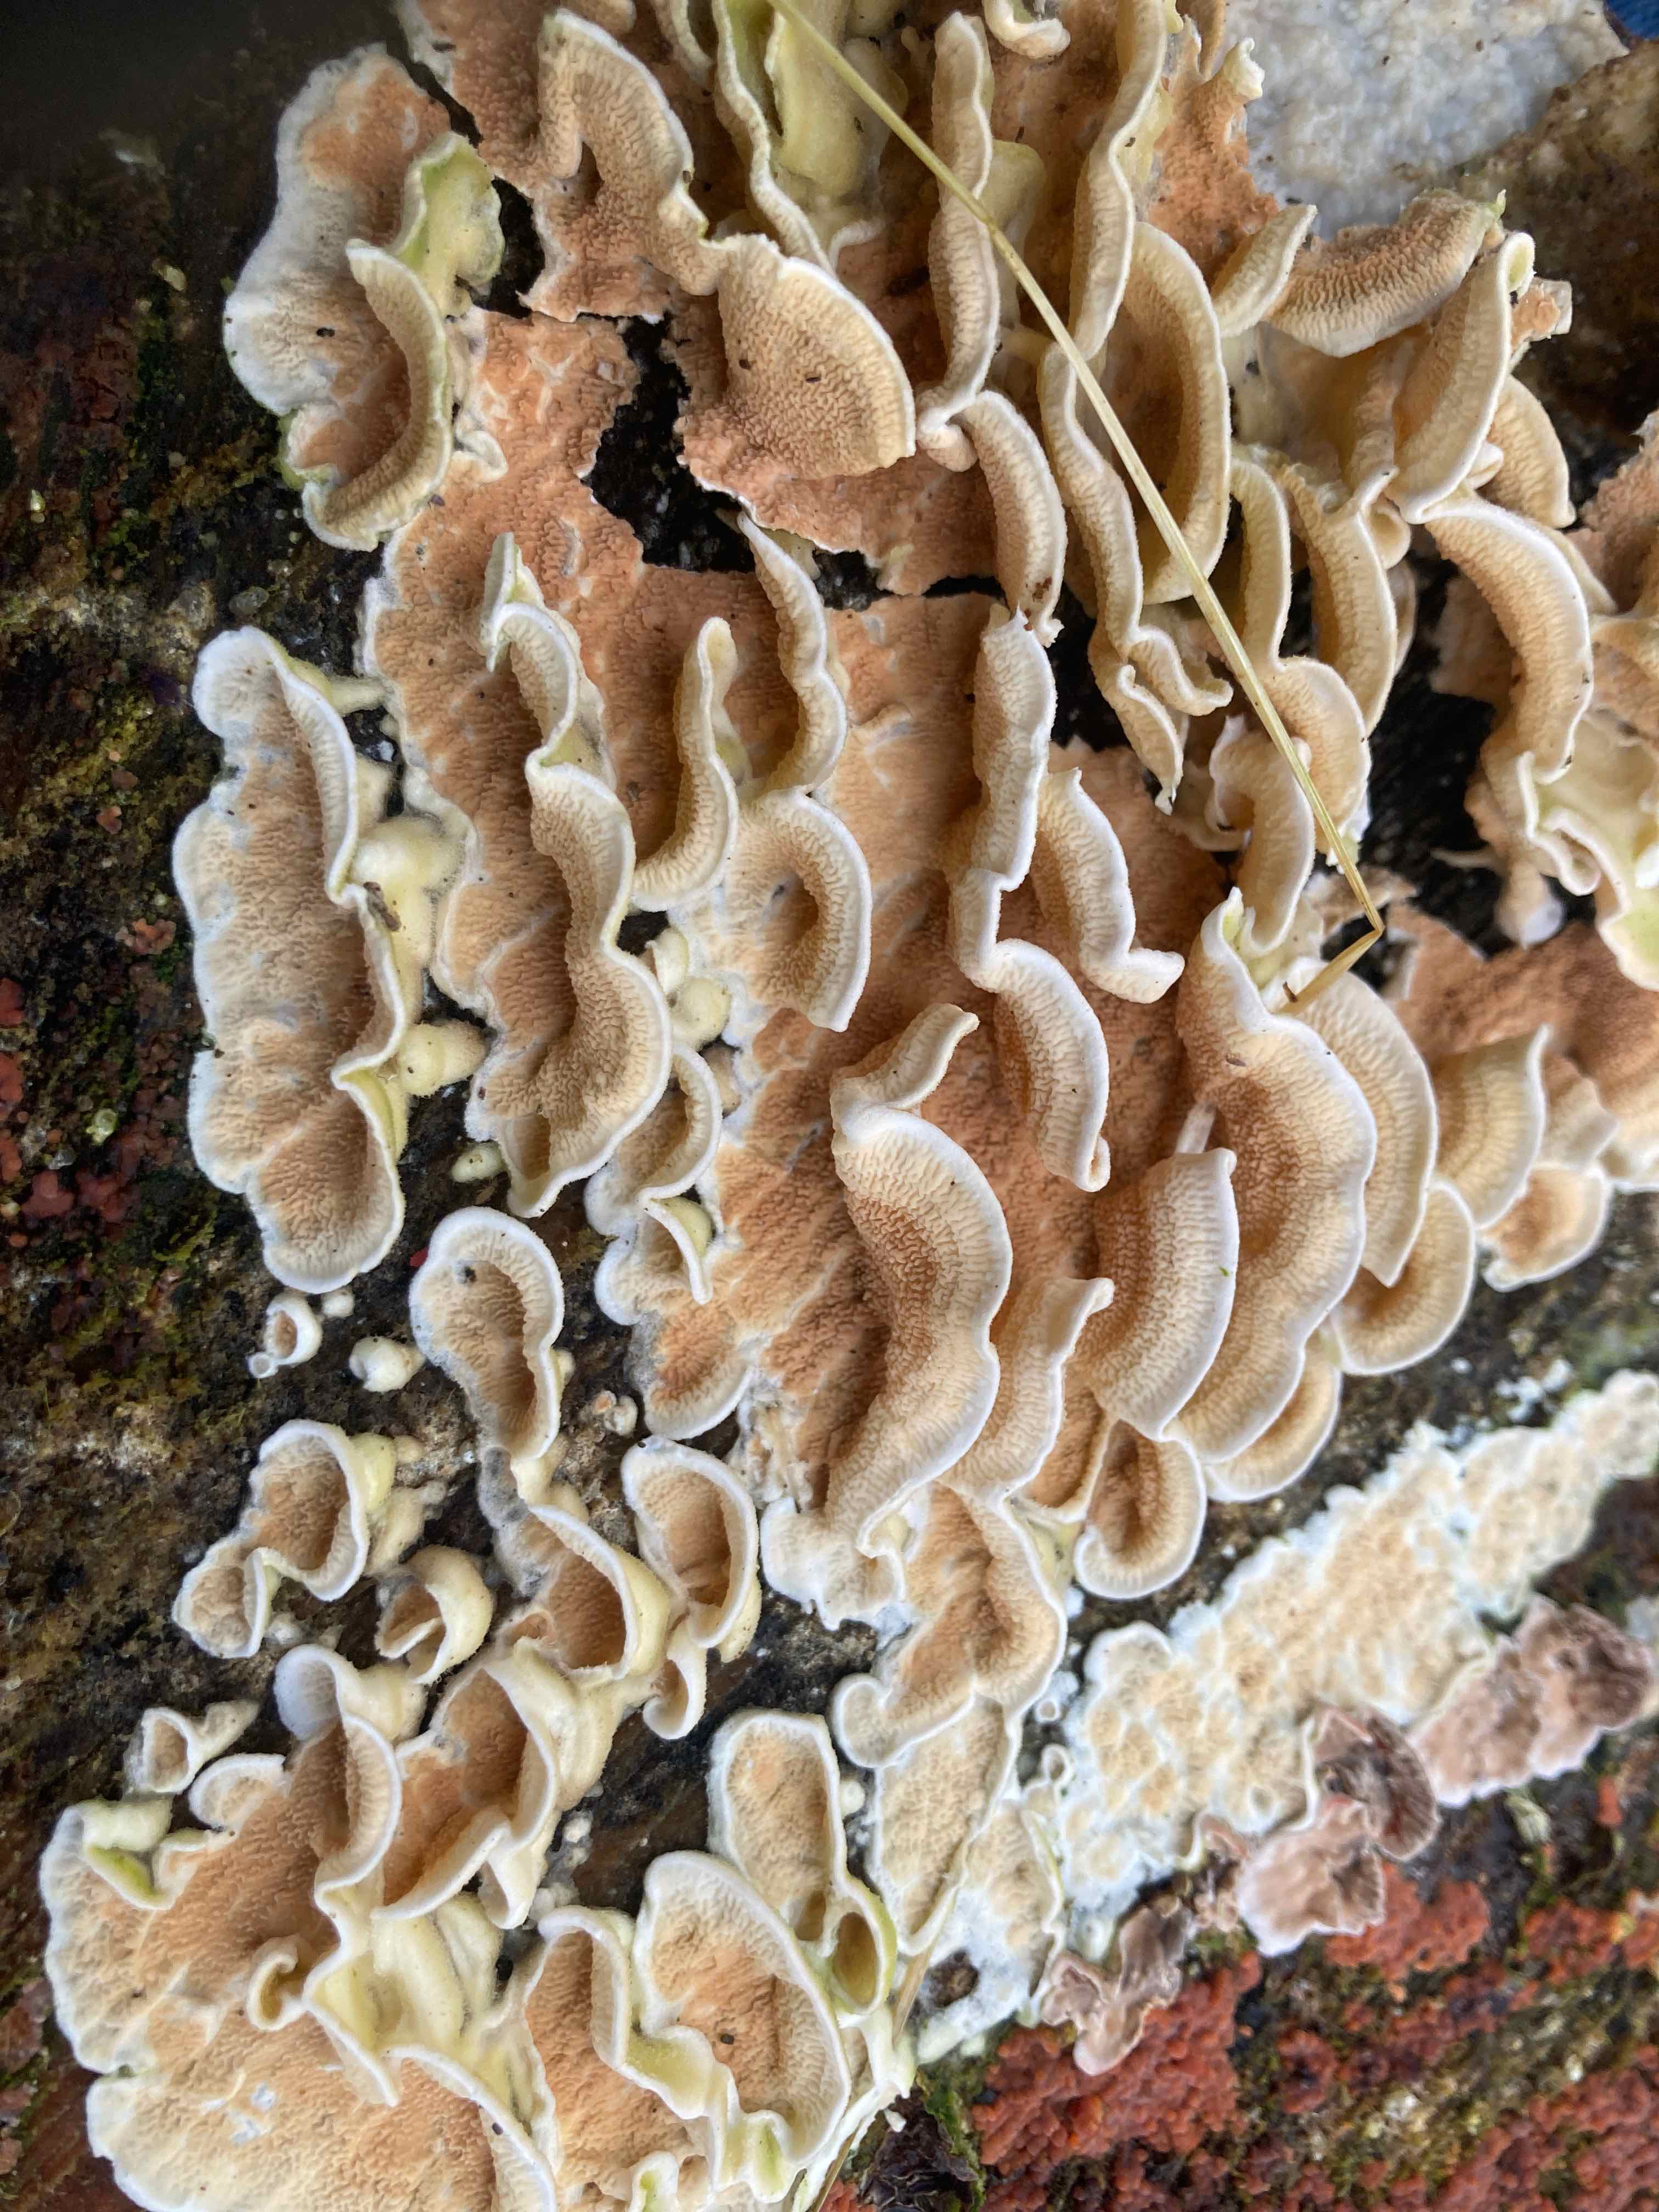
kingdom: Fungi
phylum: Basidiomycota
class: Agaricomycetes
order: Polyporales
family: Irpicaceae
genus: Byssomerulius
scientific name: Byssomerulius corium
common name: læder-åresvamp
